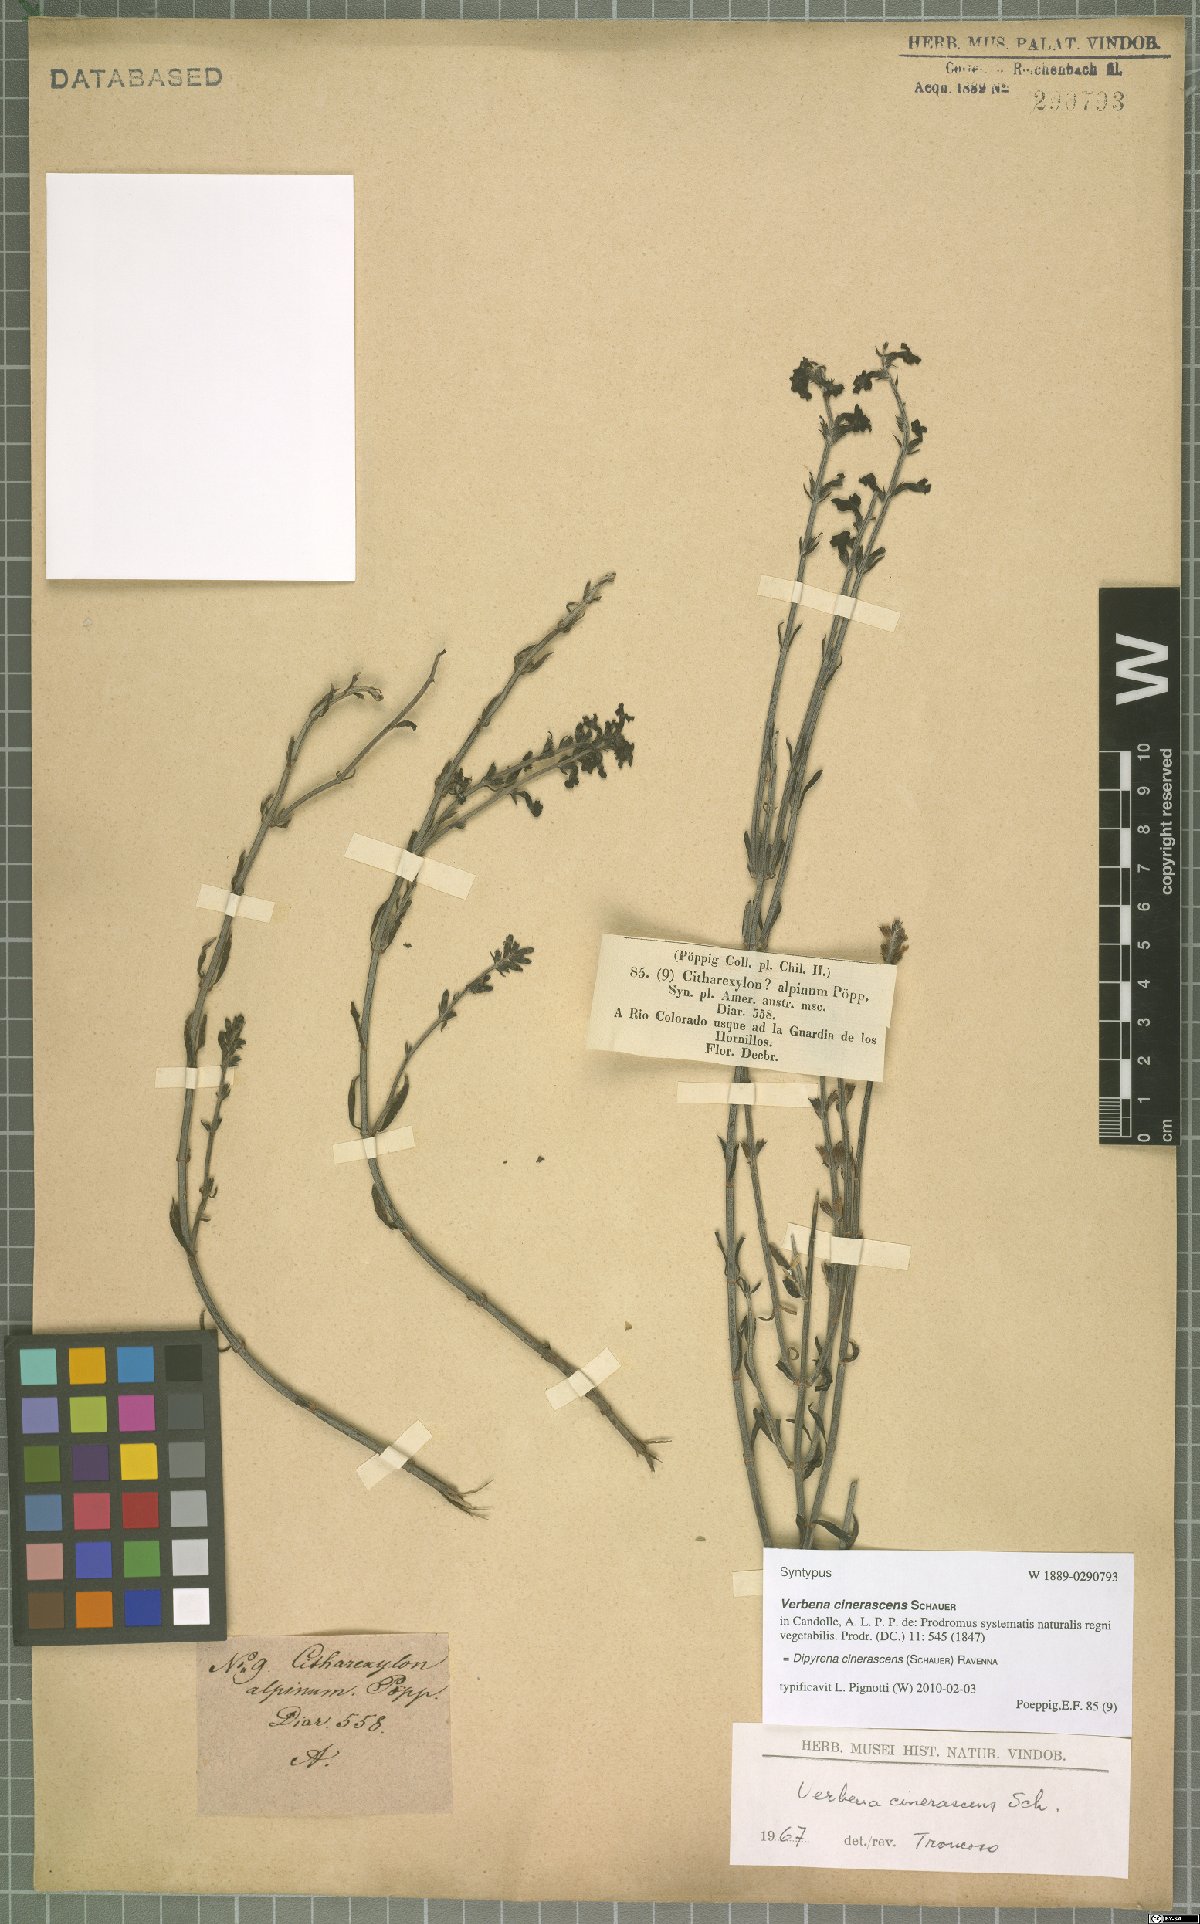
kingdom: Plantae
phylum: Tracheophyta
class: Magnoliopsida
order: Lamiales
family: Verbenaceae
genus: Mulguraea
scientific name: Mulguraea cinerascens
